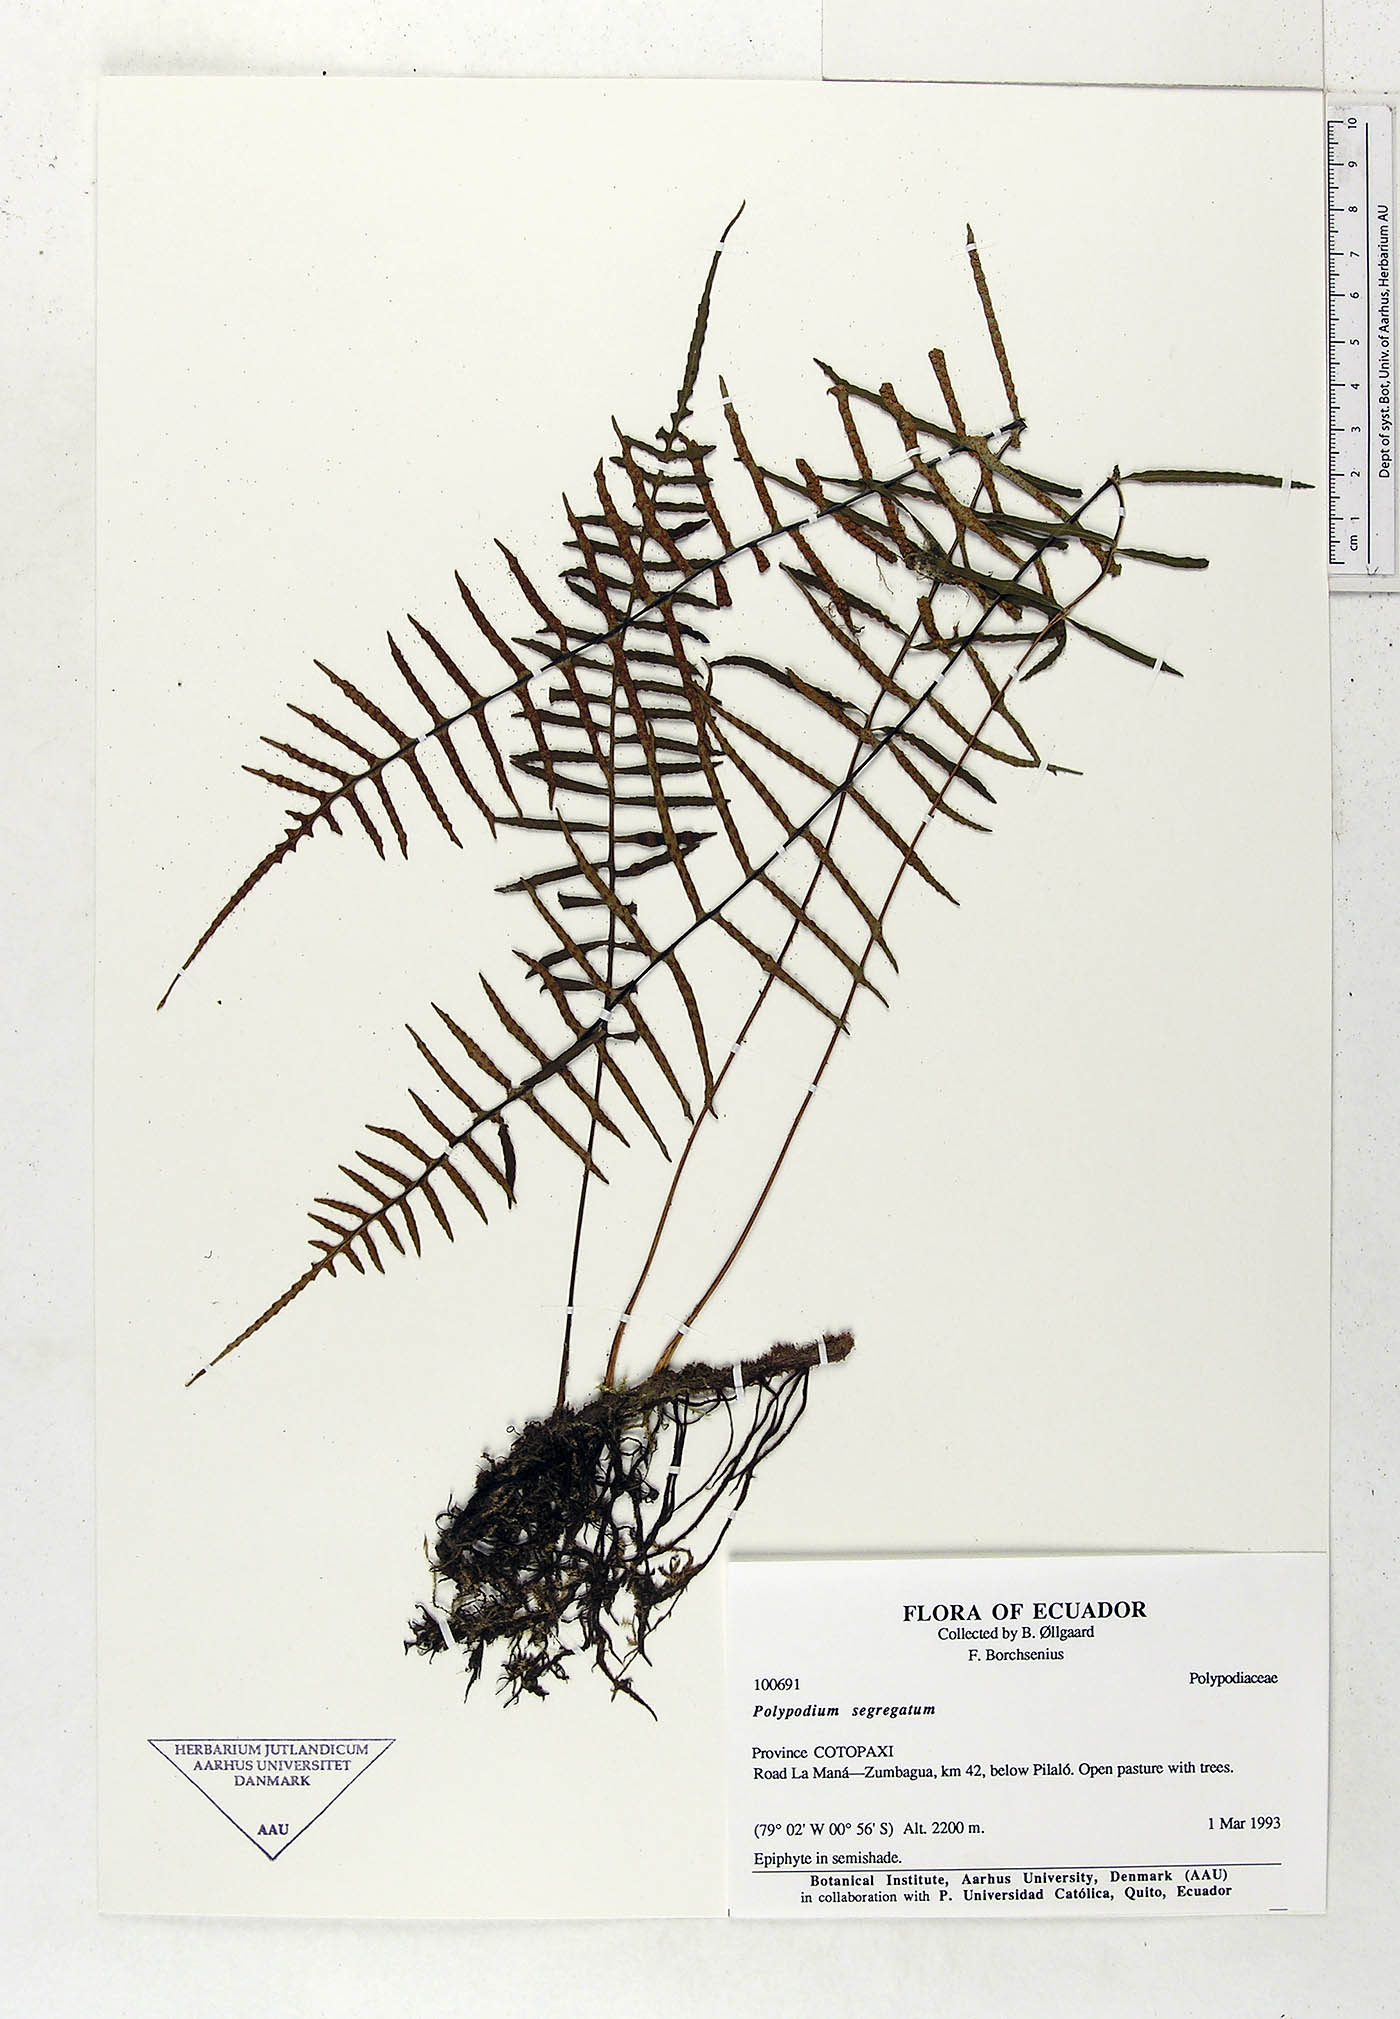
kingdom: Plantae
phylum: Tracheophyta
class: Polypodiopsida
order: Polypodiales
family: Polypodiaceae
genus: Pleopeltis
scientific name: Pleopeltis segregata
